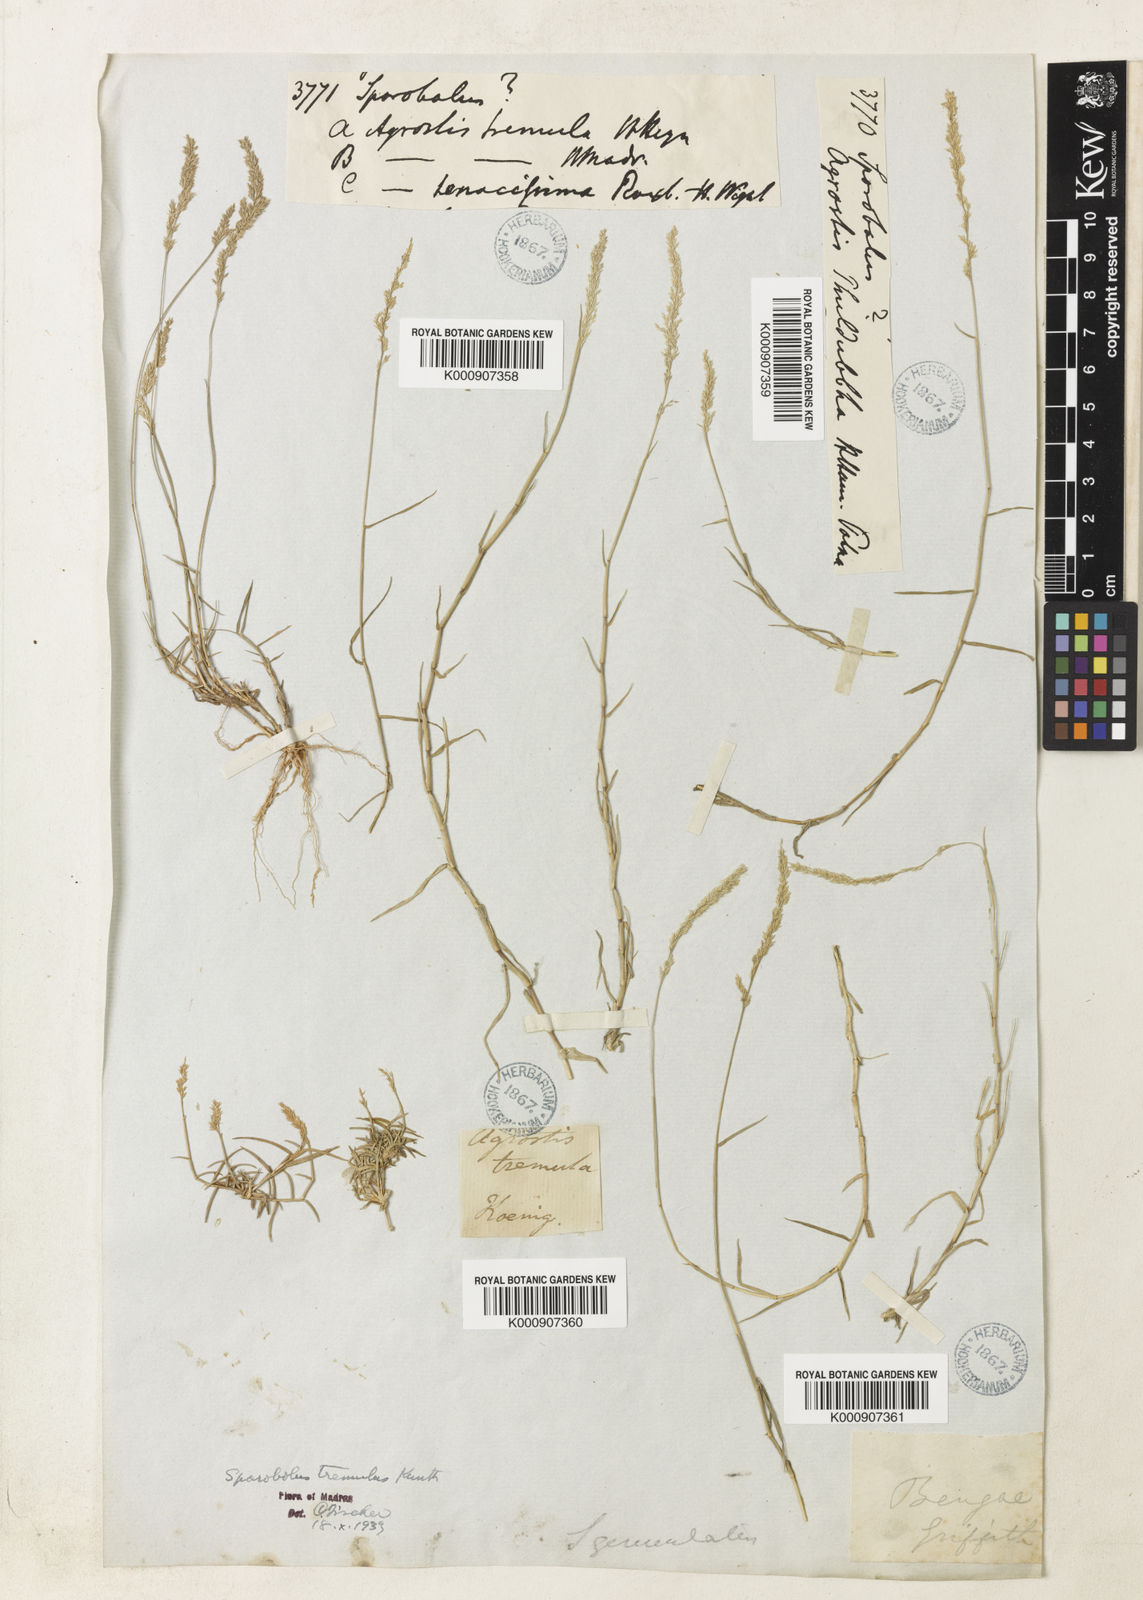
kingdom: Plantae
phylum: Tracheophyta
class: Liliopsida
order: Poales
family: Poaceae
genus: Sporobolus
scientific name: Sporobolus virginicus
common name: Beach dropseed
